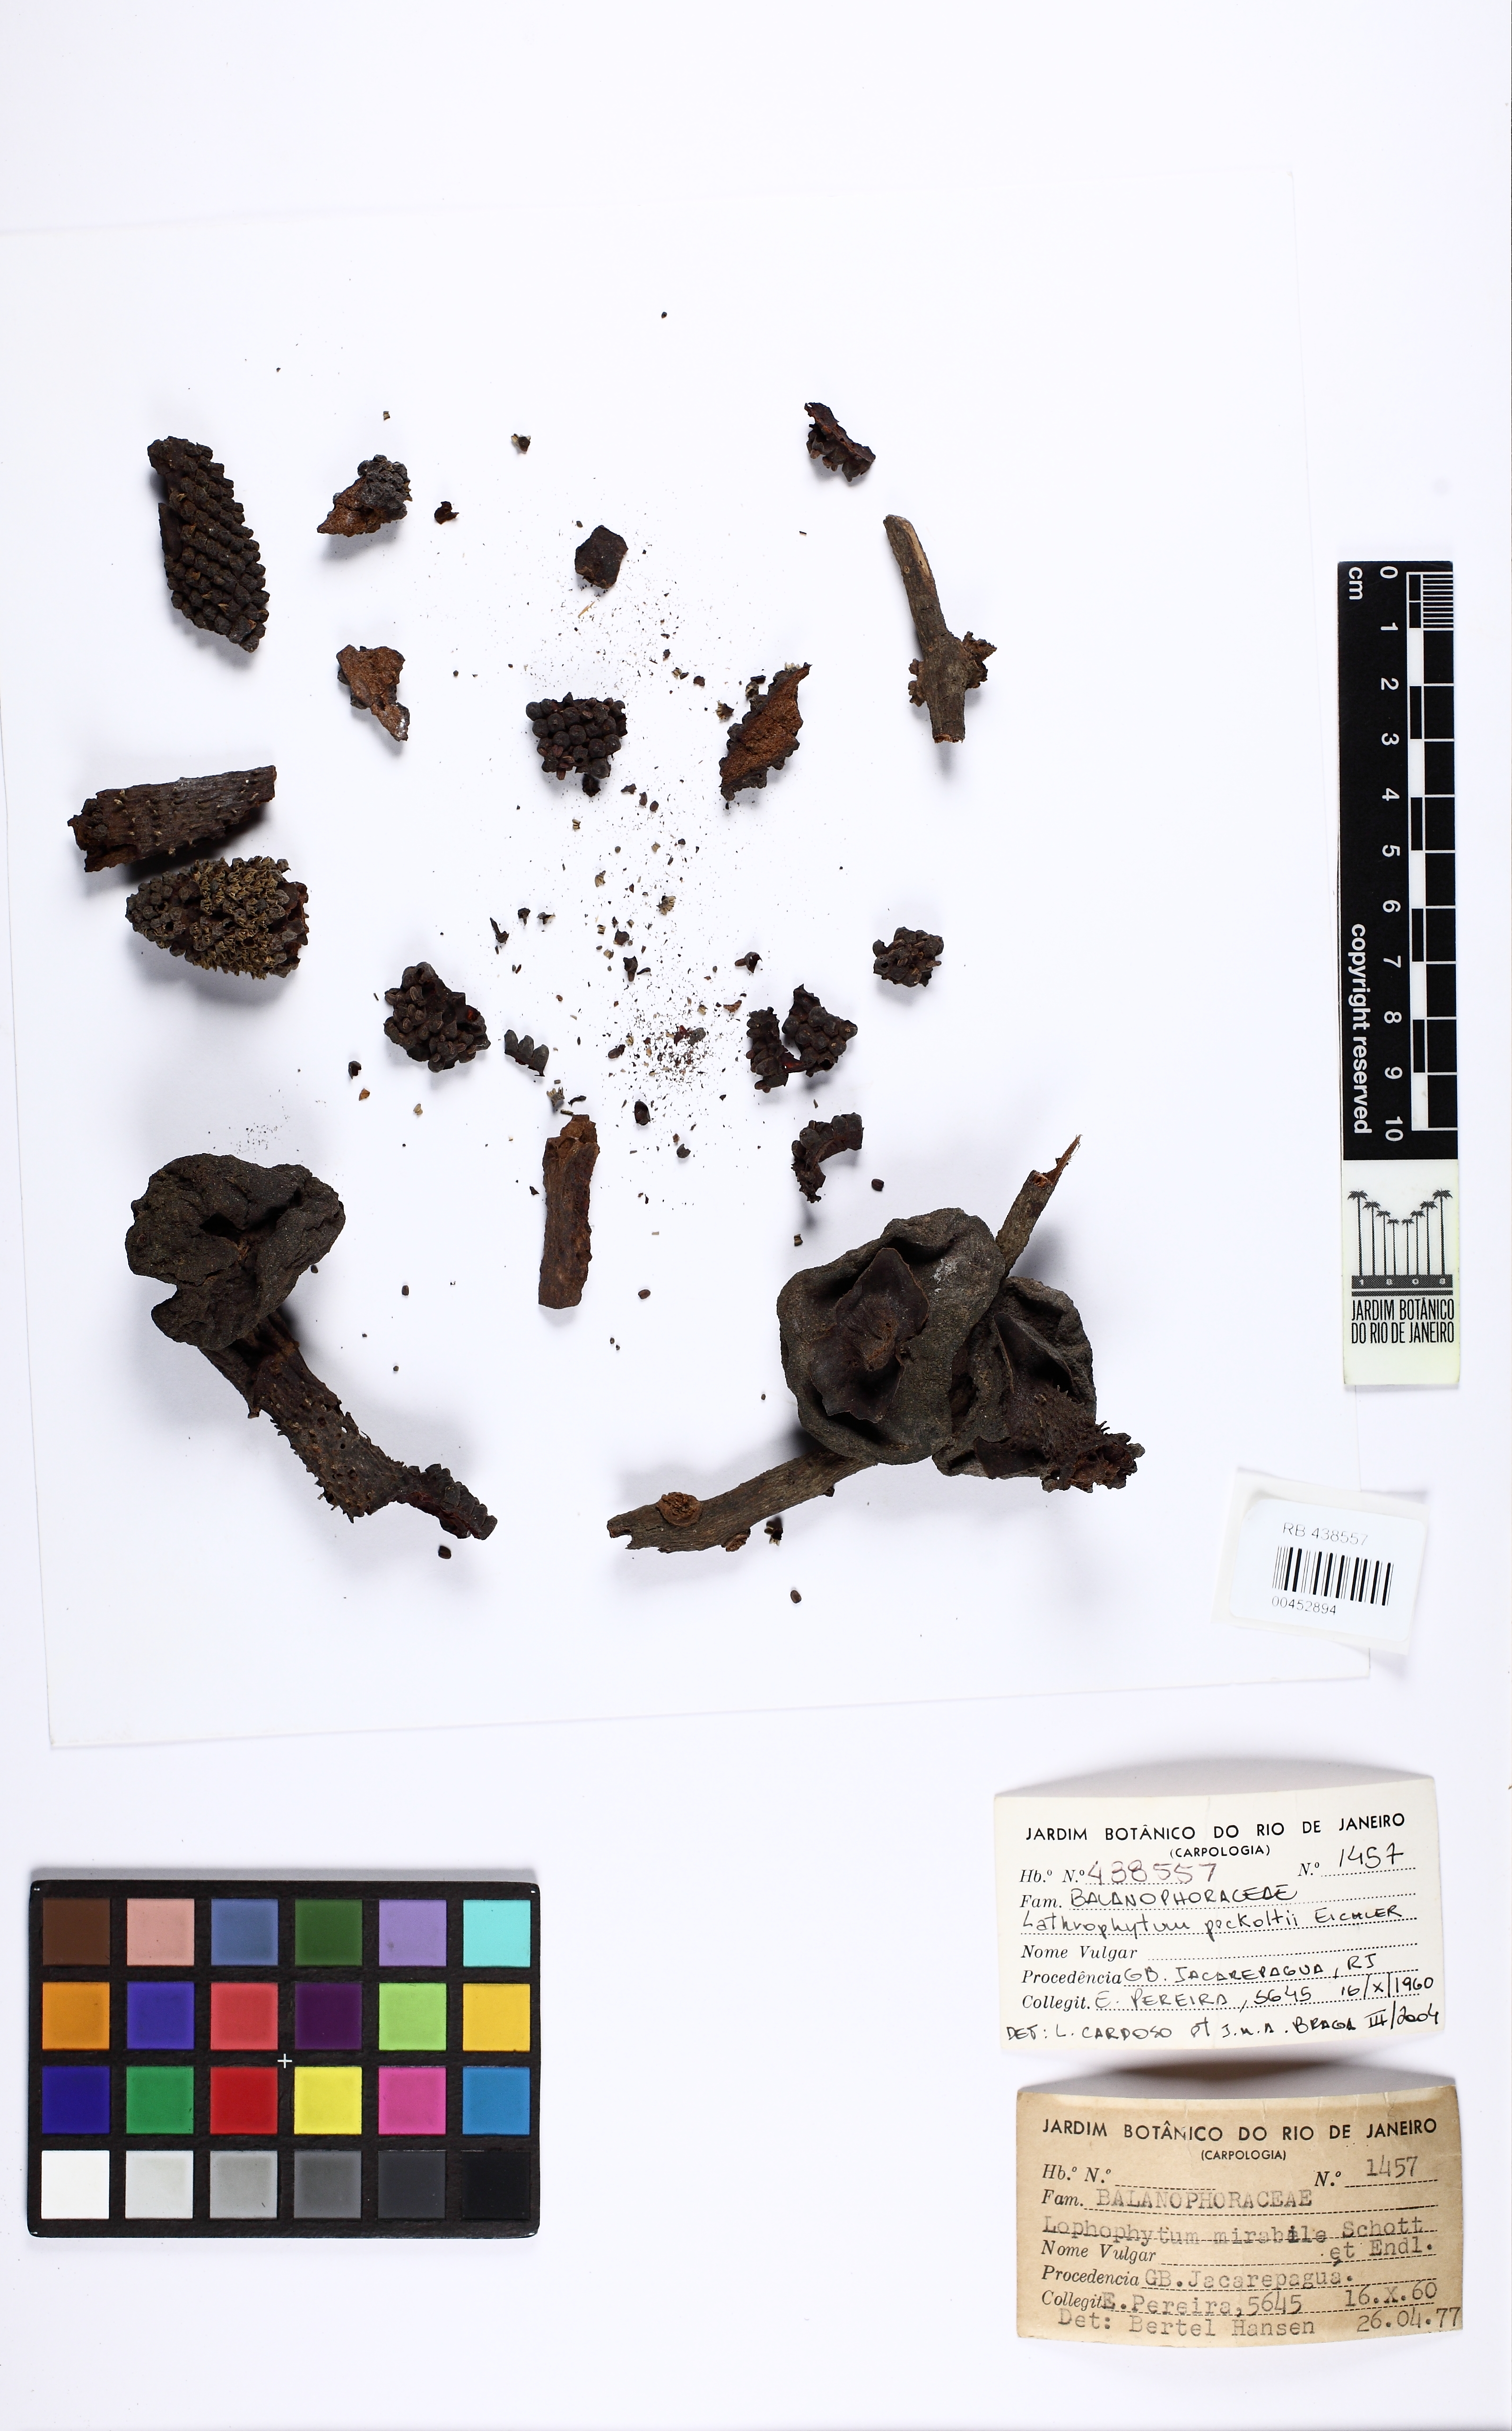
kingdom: Plantae
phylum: Tracheophyta
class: Magnoliopsida
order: Santalales
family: Balanophoraceae
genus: Lathrophytum
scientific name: Lathrophytum peckoltii
